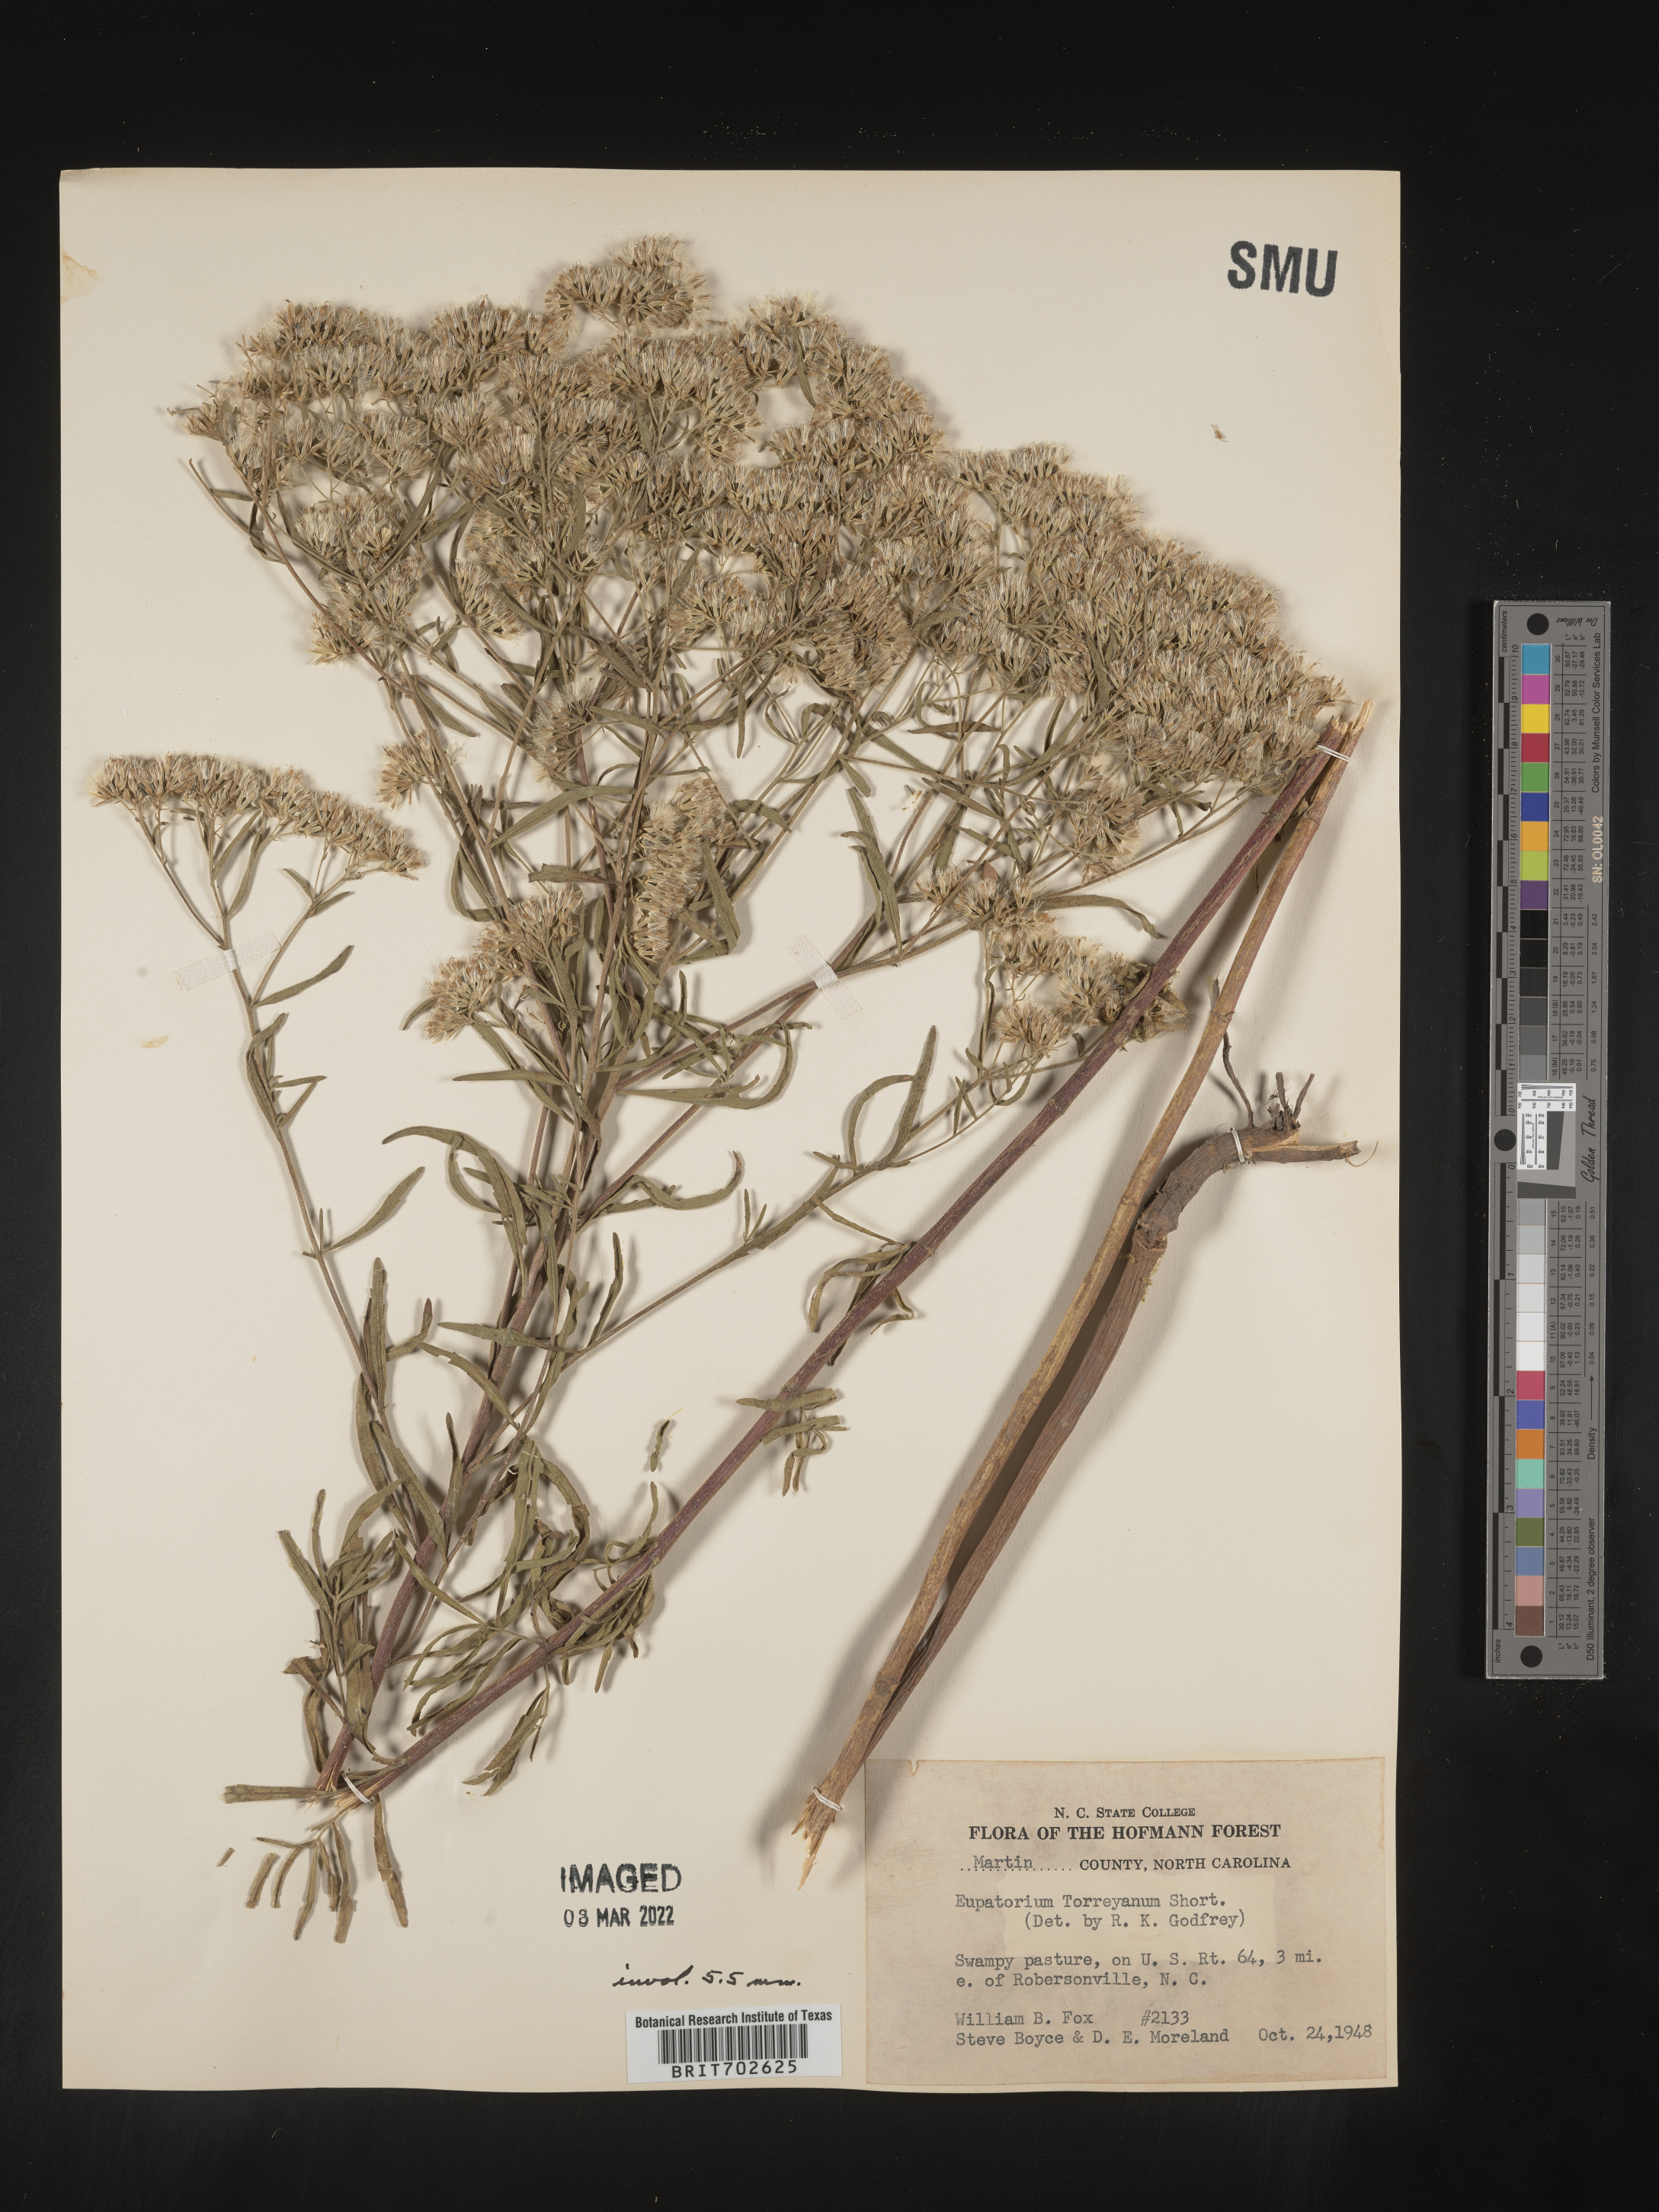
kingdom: Plantae
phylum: Tracheophyta
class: Magnoliopsida
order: Asterales
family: Asteraceae
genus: Eupatorium
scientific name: Eupatorium torreyanum
